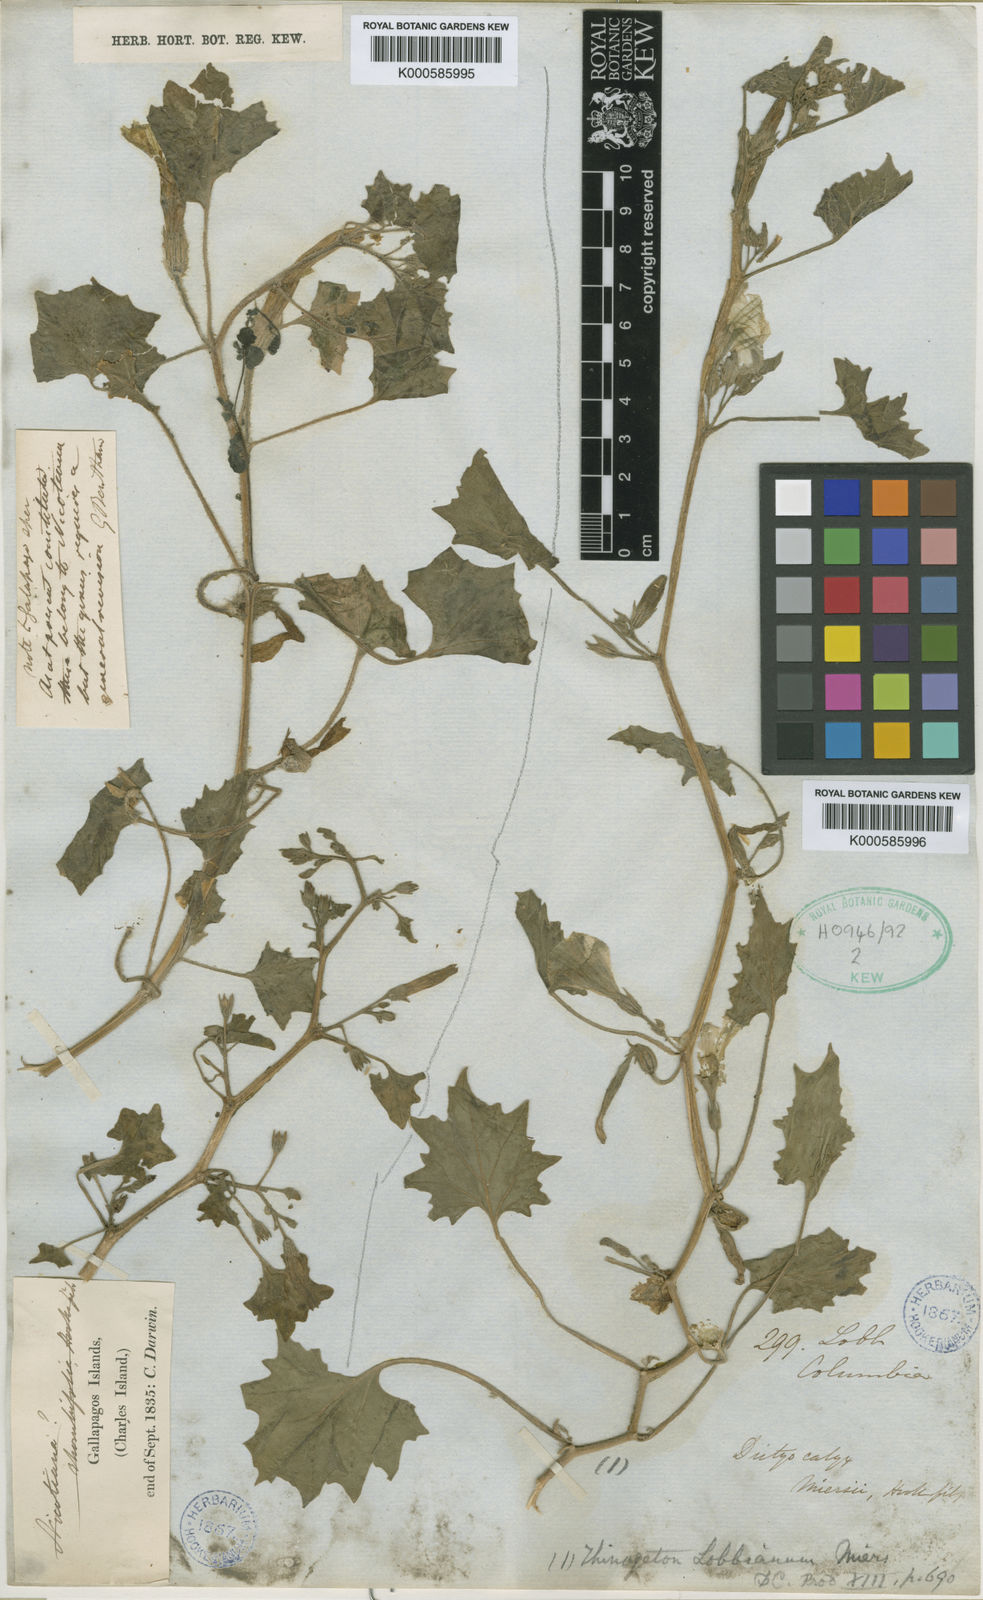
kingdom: Plantae
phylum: Tracheophyta
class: Magnoliopsida
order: Solanales
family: Solanaceae
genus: Exodeconus
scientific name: Exodeconus miersii
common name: Galapagos shore petunia
